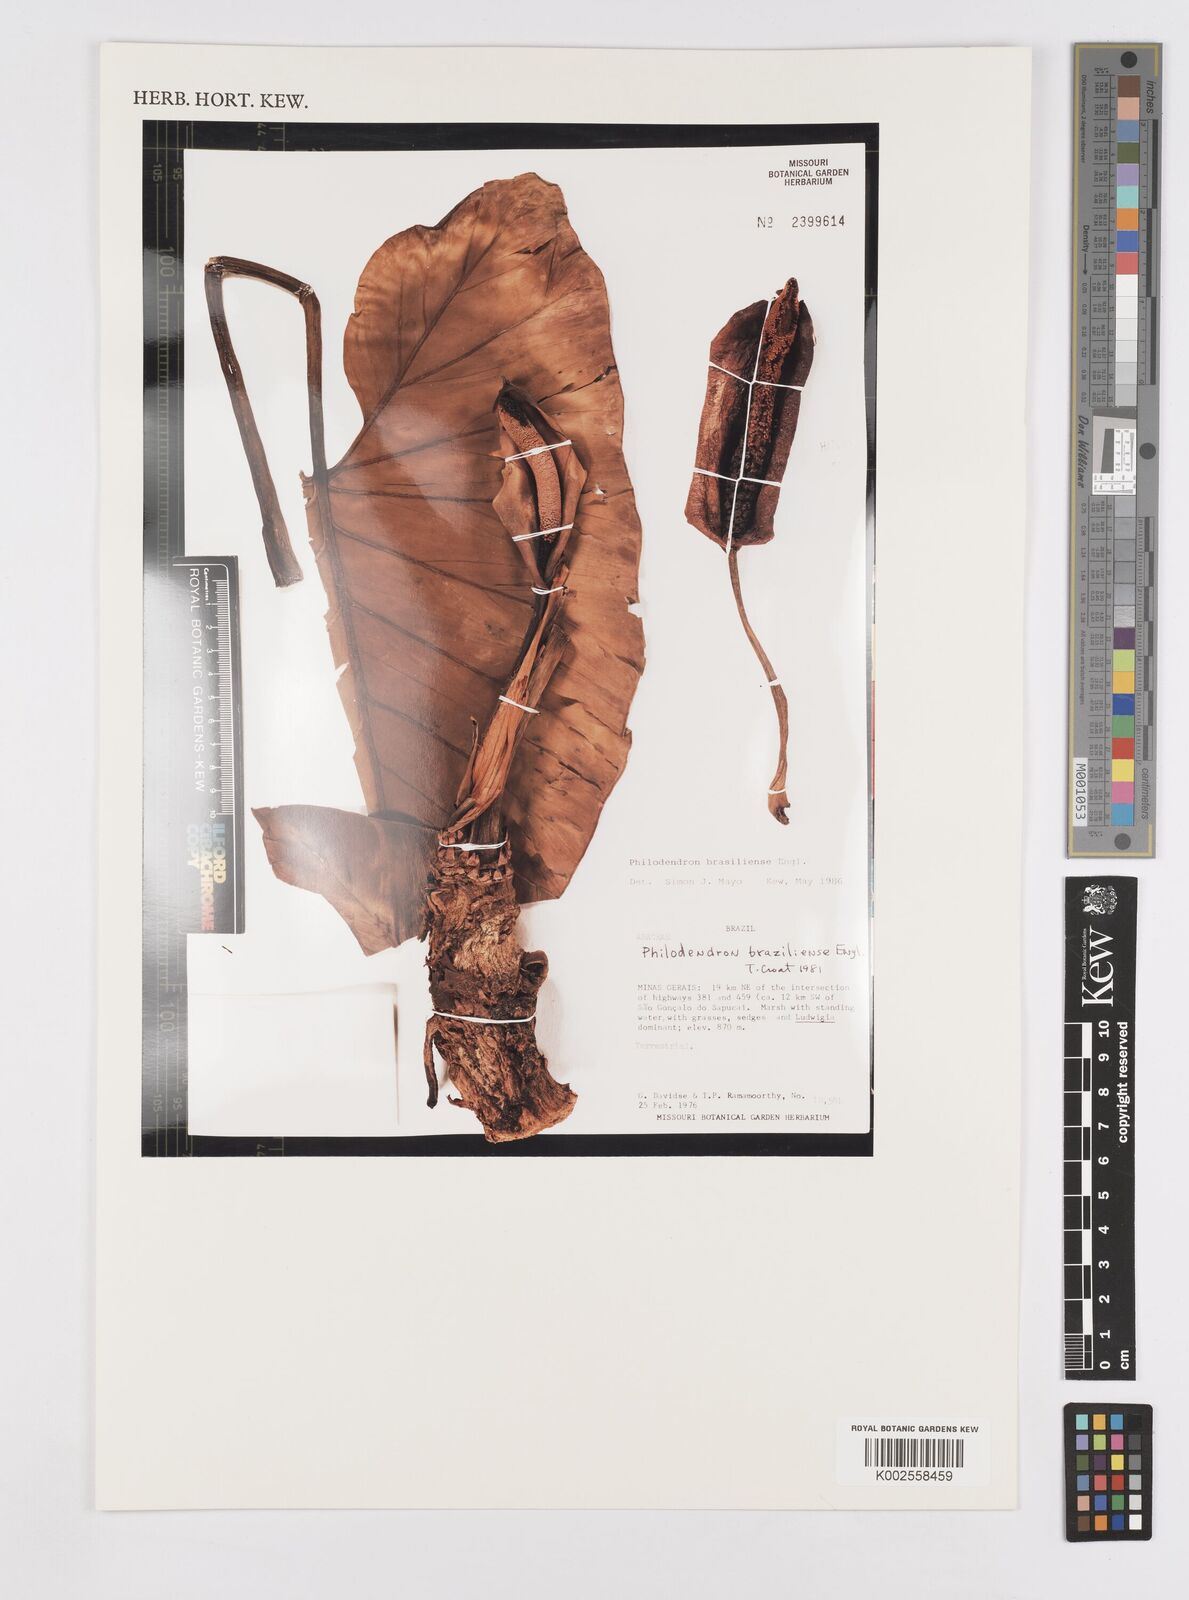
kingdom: Plantae
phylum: Tracheophyta
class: Liliopsida
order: Alismatales
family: Araceae
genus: Thaumatophyllum
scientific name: Thaumatophyllum brasiliense
